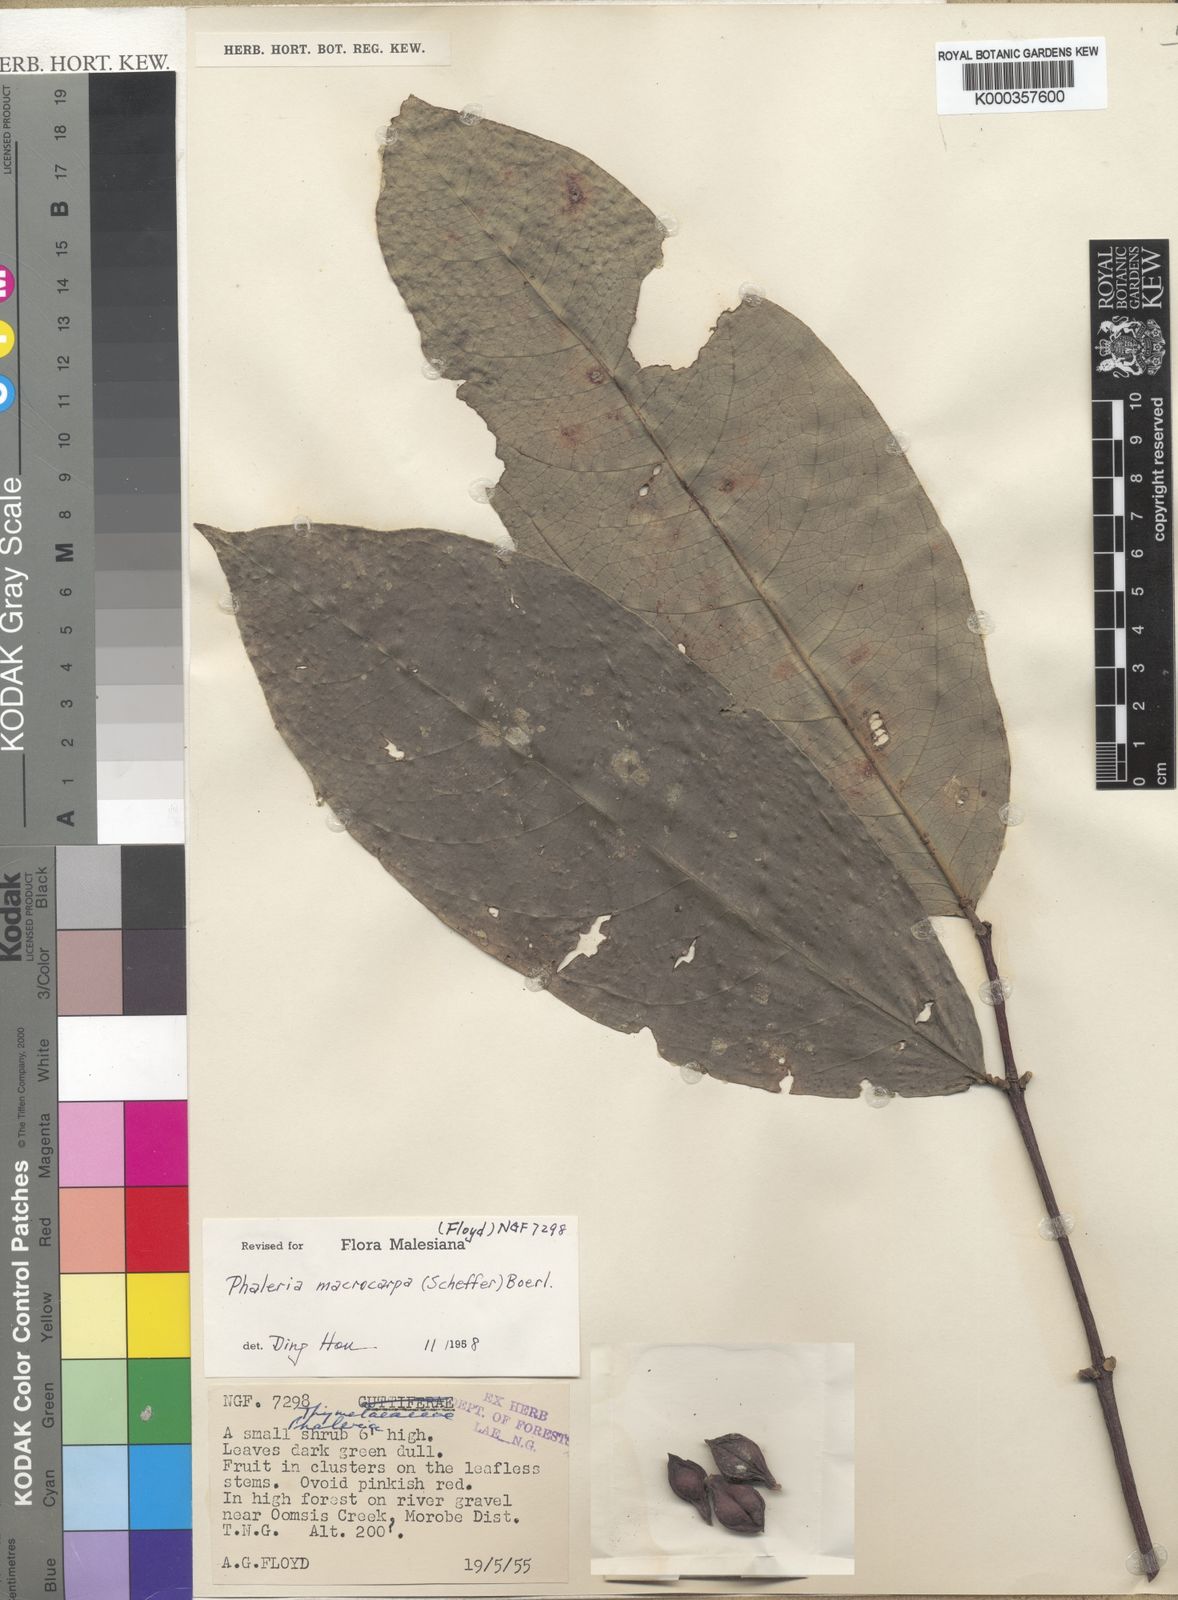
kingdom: Plantae
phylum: Tracheophyta
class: Magnoliopsida
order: Malvales
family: Thymelaeaceae
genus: Phaleria
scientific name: Phaleria macrocarpa
